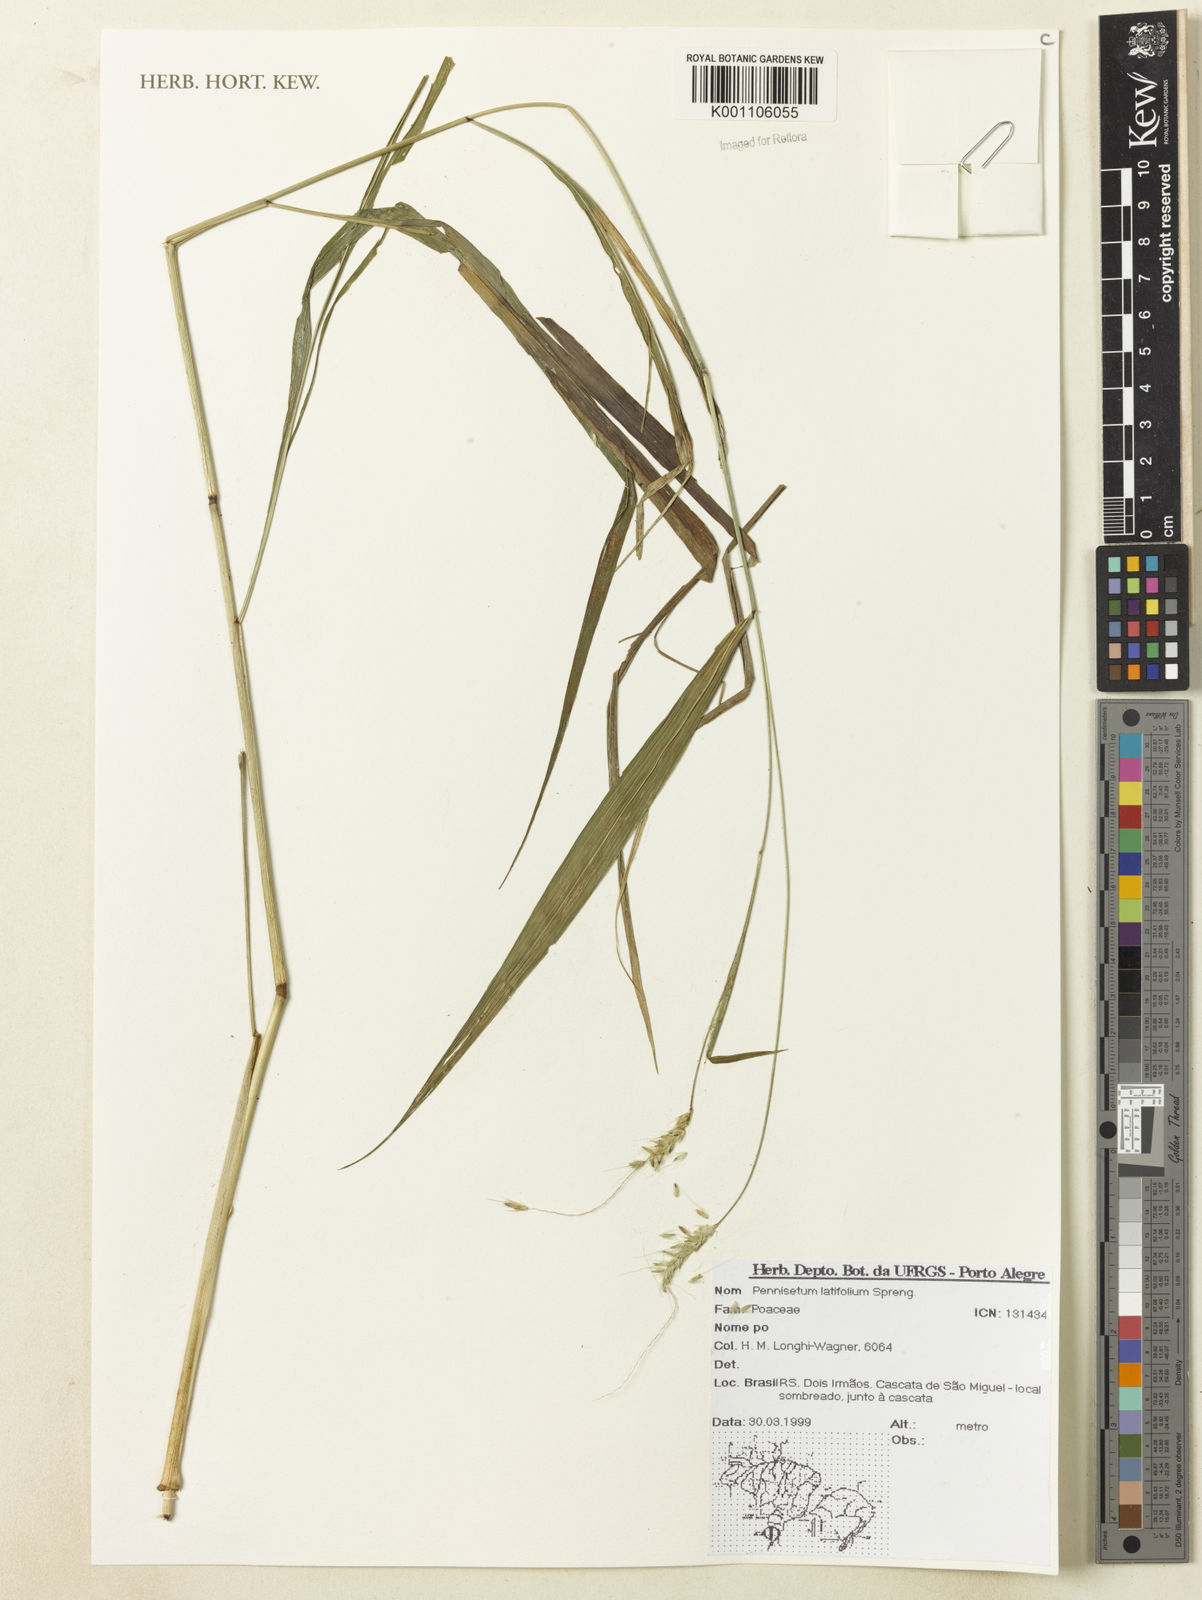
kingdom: Plantae
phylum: Tracheophyta
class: Liliopsida
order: Poales
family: Poaceae
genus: Cenchrus
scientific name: Cenchrus latifolius
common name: Sandbur
